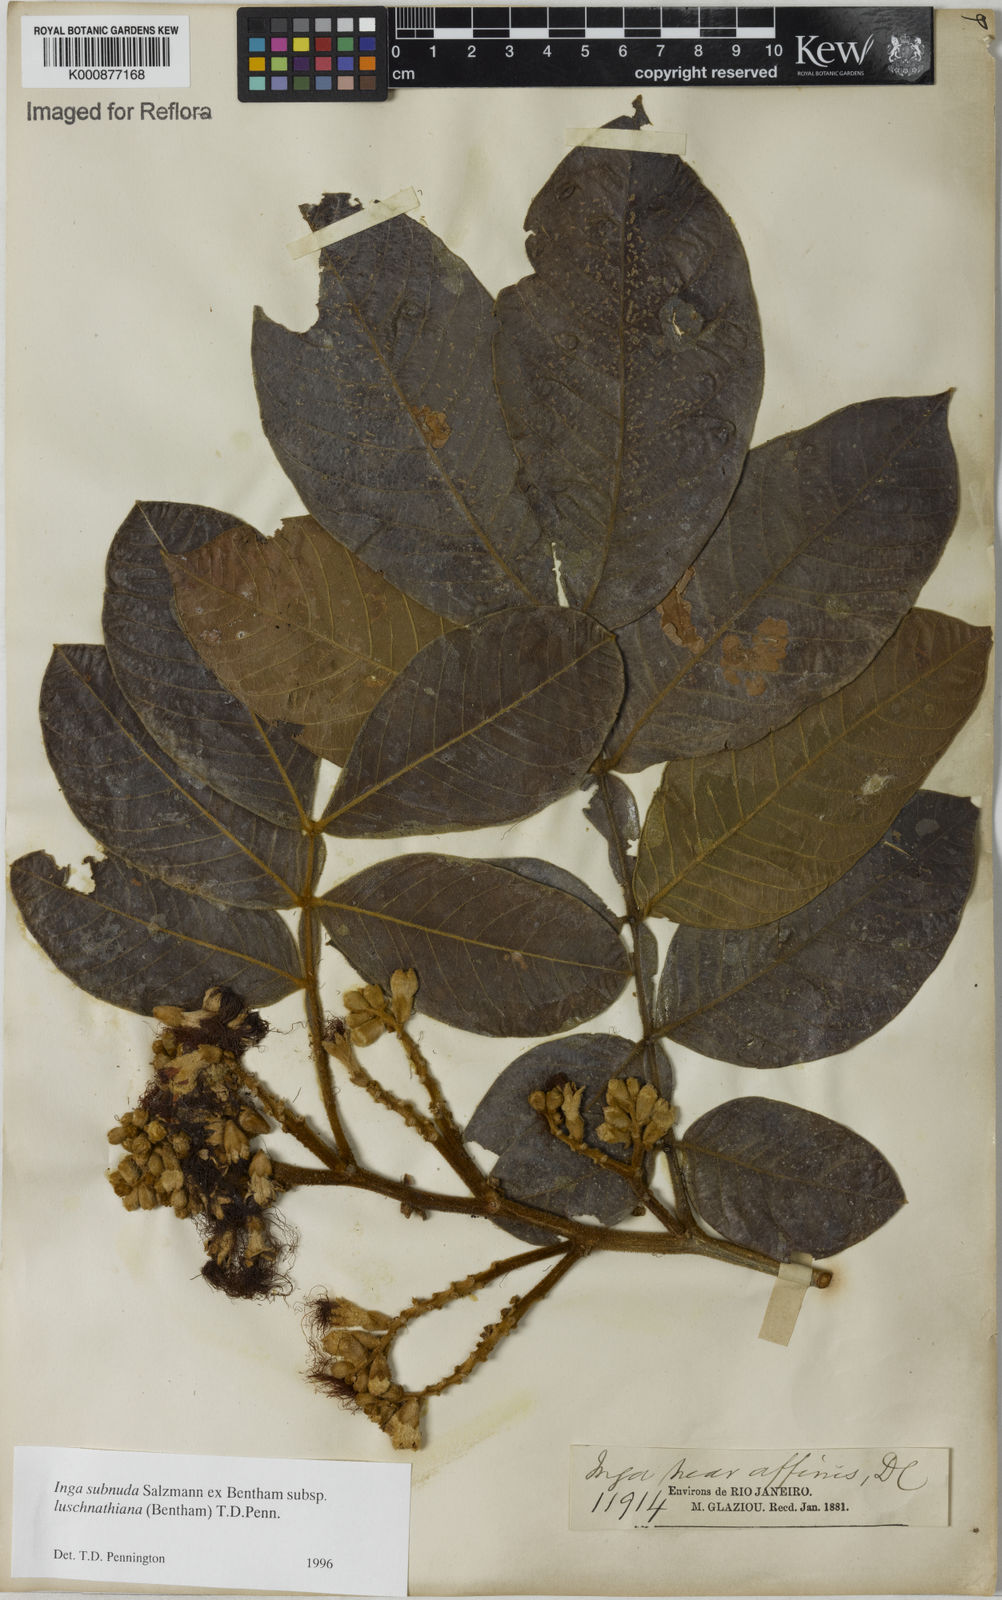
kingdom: Plantae
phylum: Tracheophyta
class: Magnoliopsida
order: Fabales
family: Fabaceae
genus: Inga
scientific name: Inga subnuda
